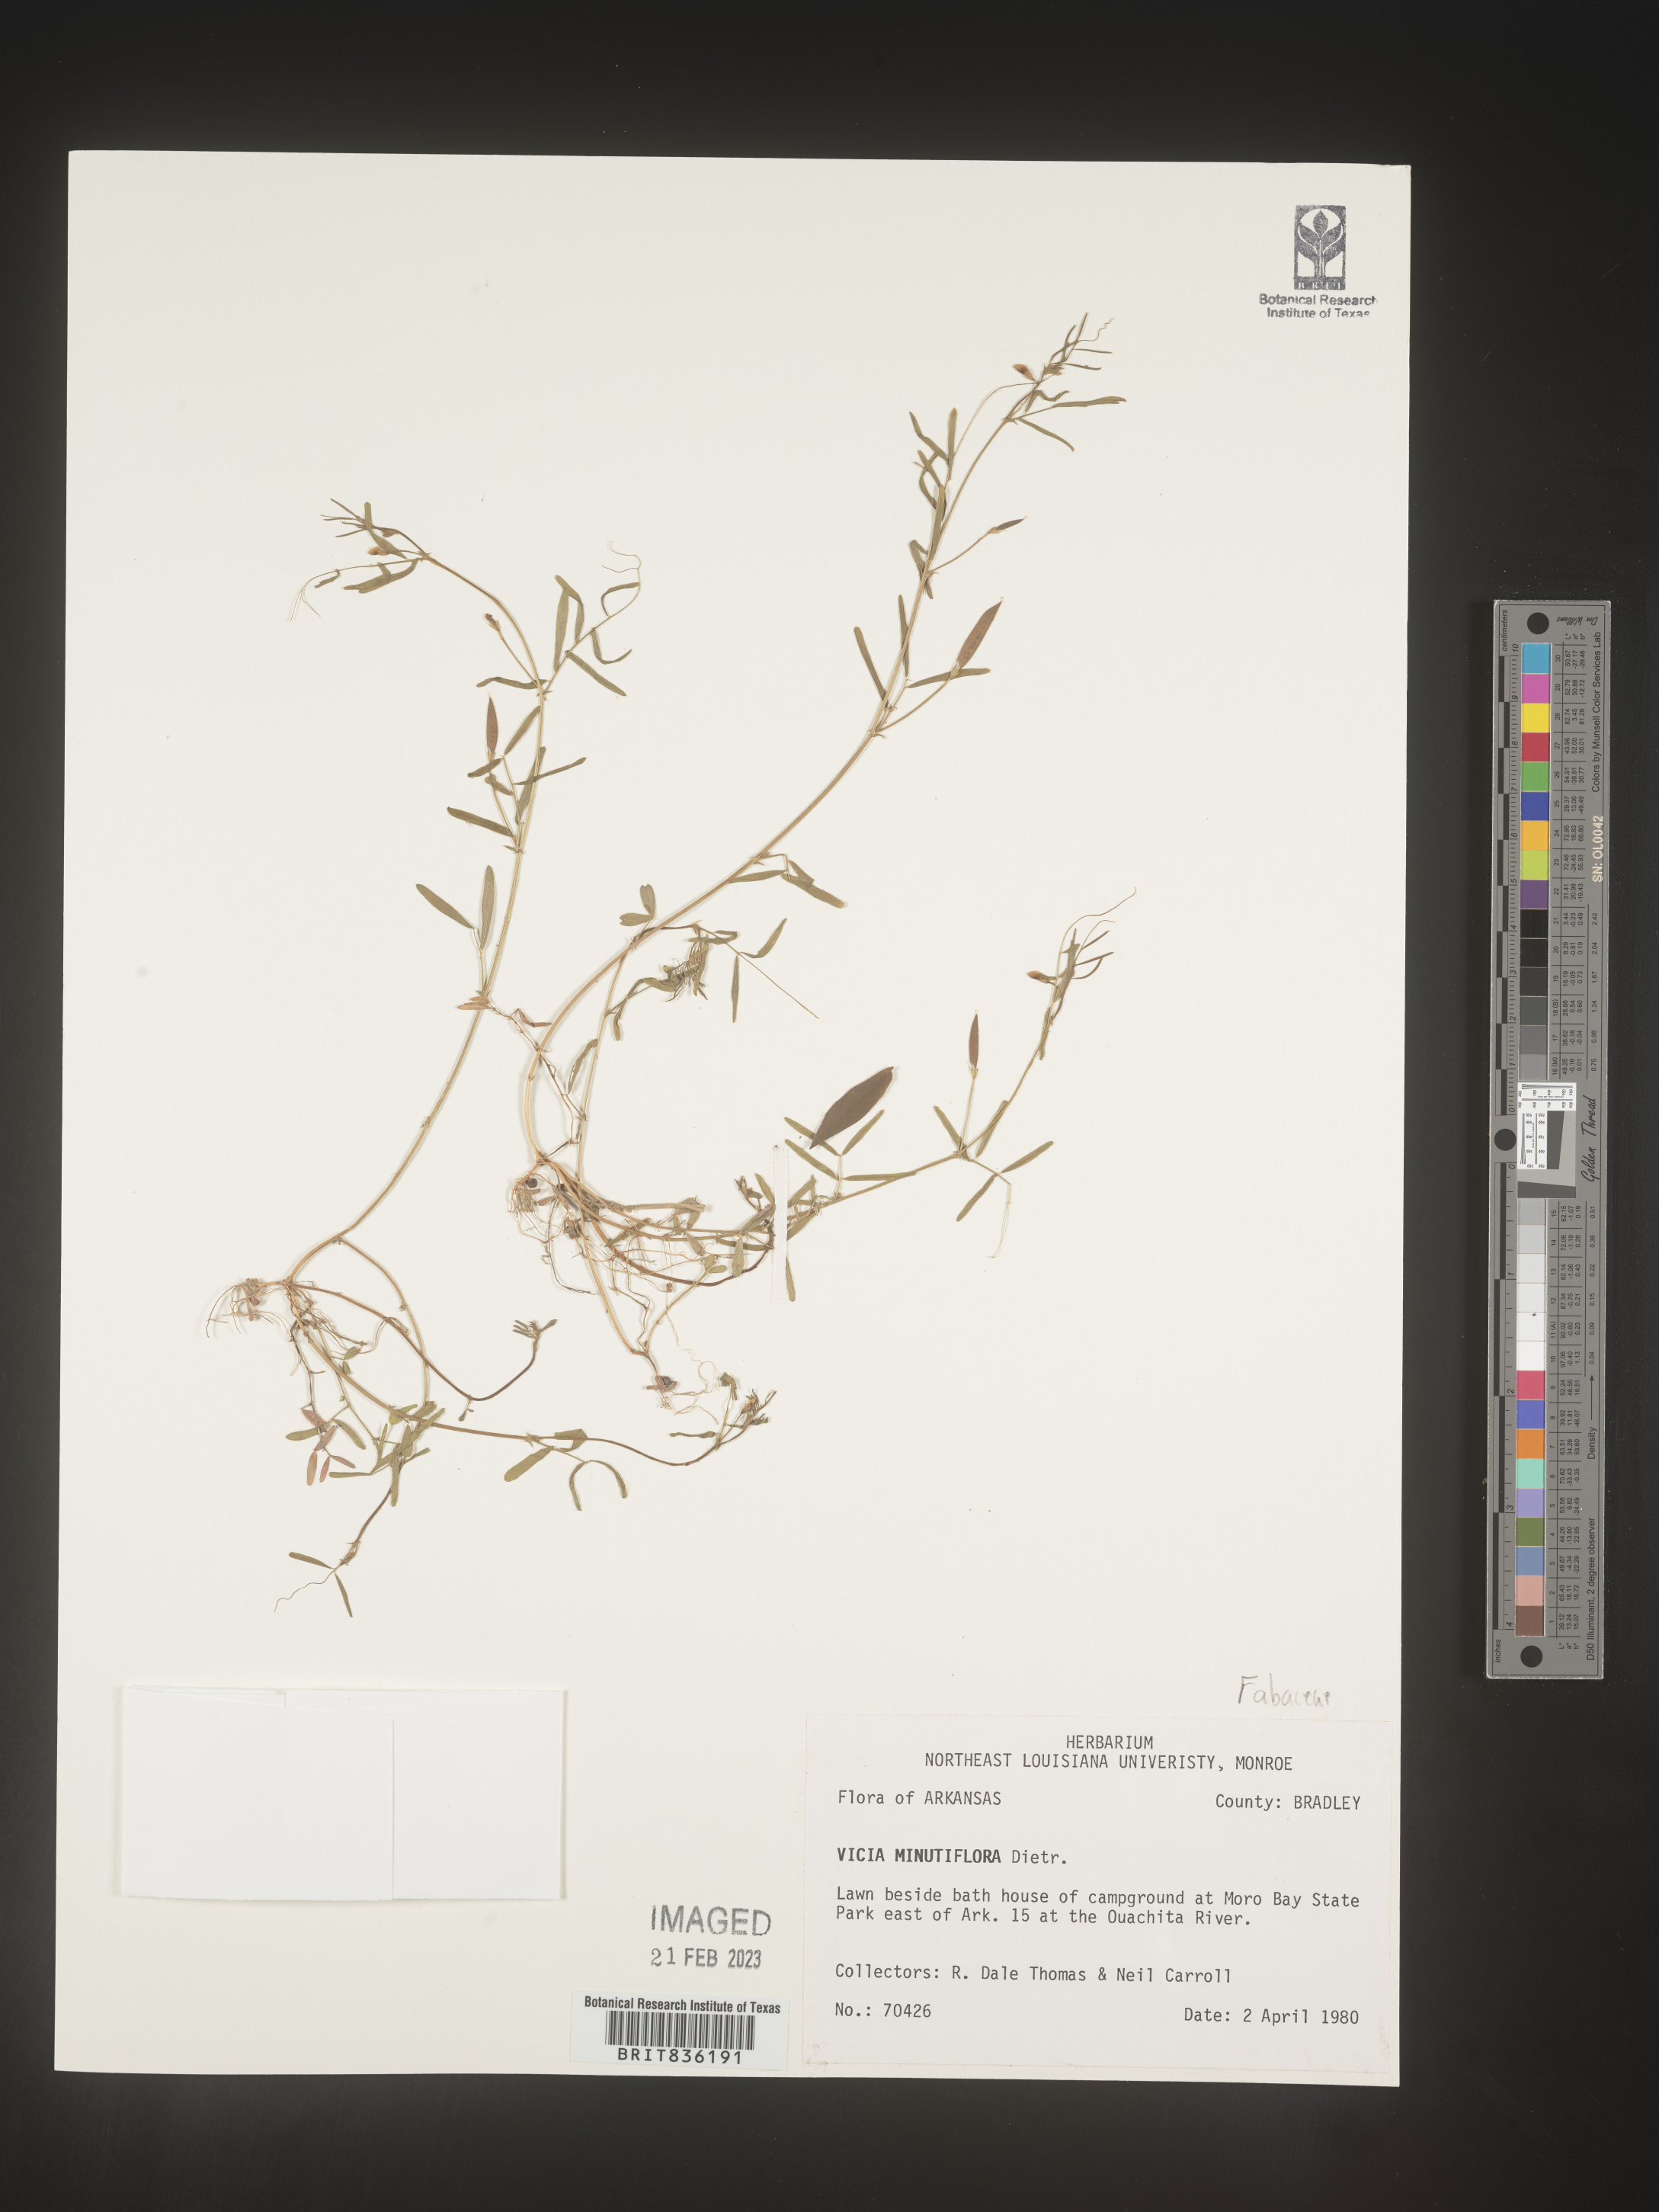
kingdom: Plantae
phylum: Tracheophyta
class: Magnoliopsida
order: Fabales
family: Fabaceae
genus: Vicia
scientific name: Vicia minutiflora
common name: Pygmy-flower vetch
